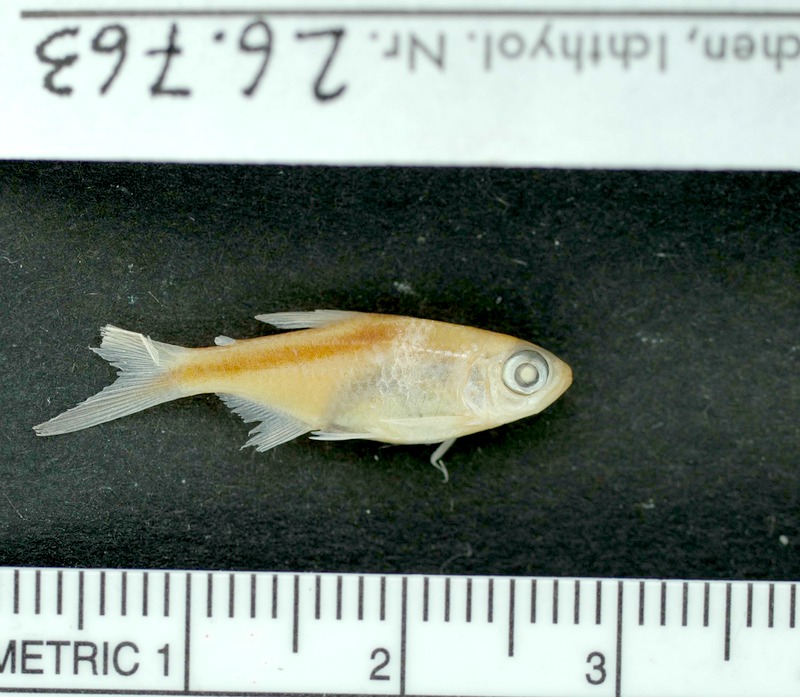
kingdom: Animalia
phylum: Chordata
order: Characiformes
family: Characidae
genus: Thayeria
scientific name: Thayeria ifati
